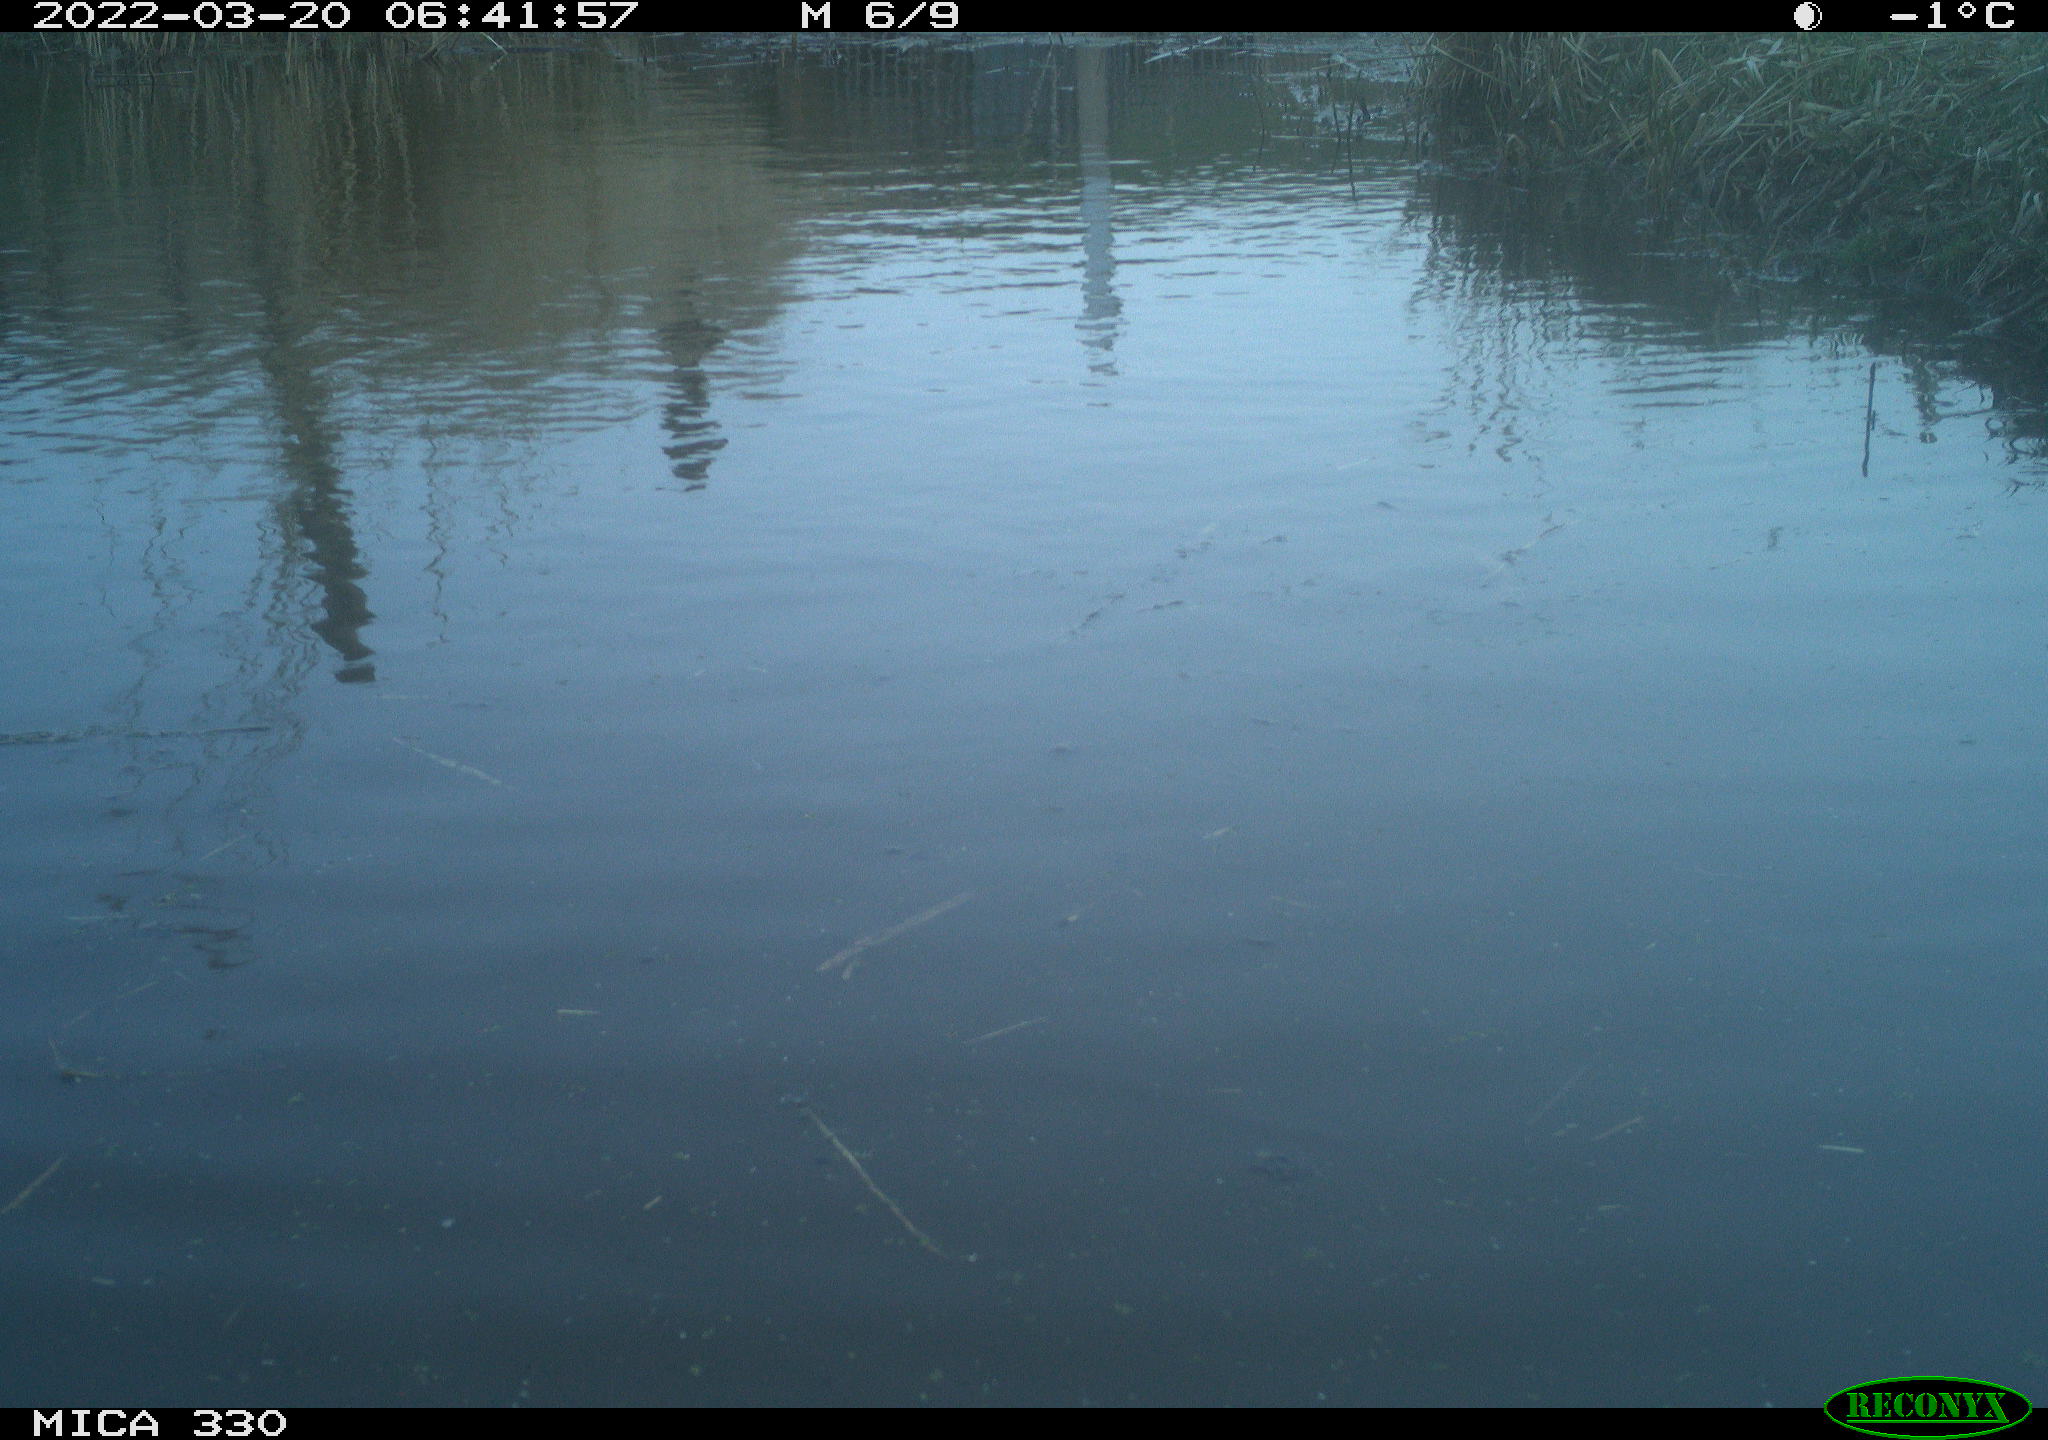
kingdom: Animalia
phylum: Chordata
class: Aves
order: Gruiformes
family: Rallidae
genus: Gallinula
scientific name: Gallinula chloropus
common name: Common moorhen
